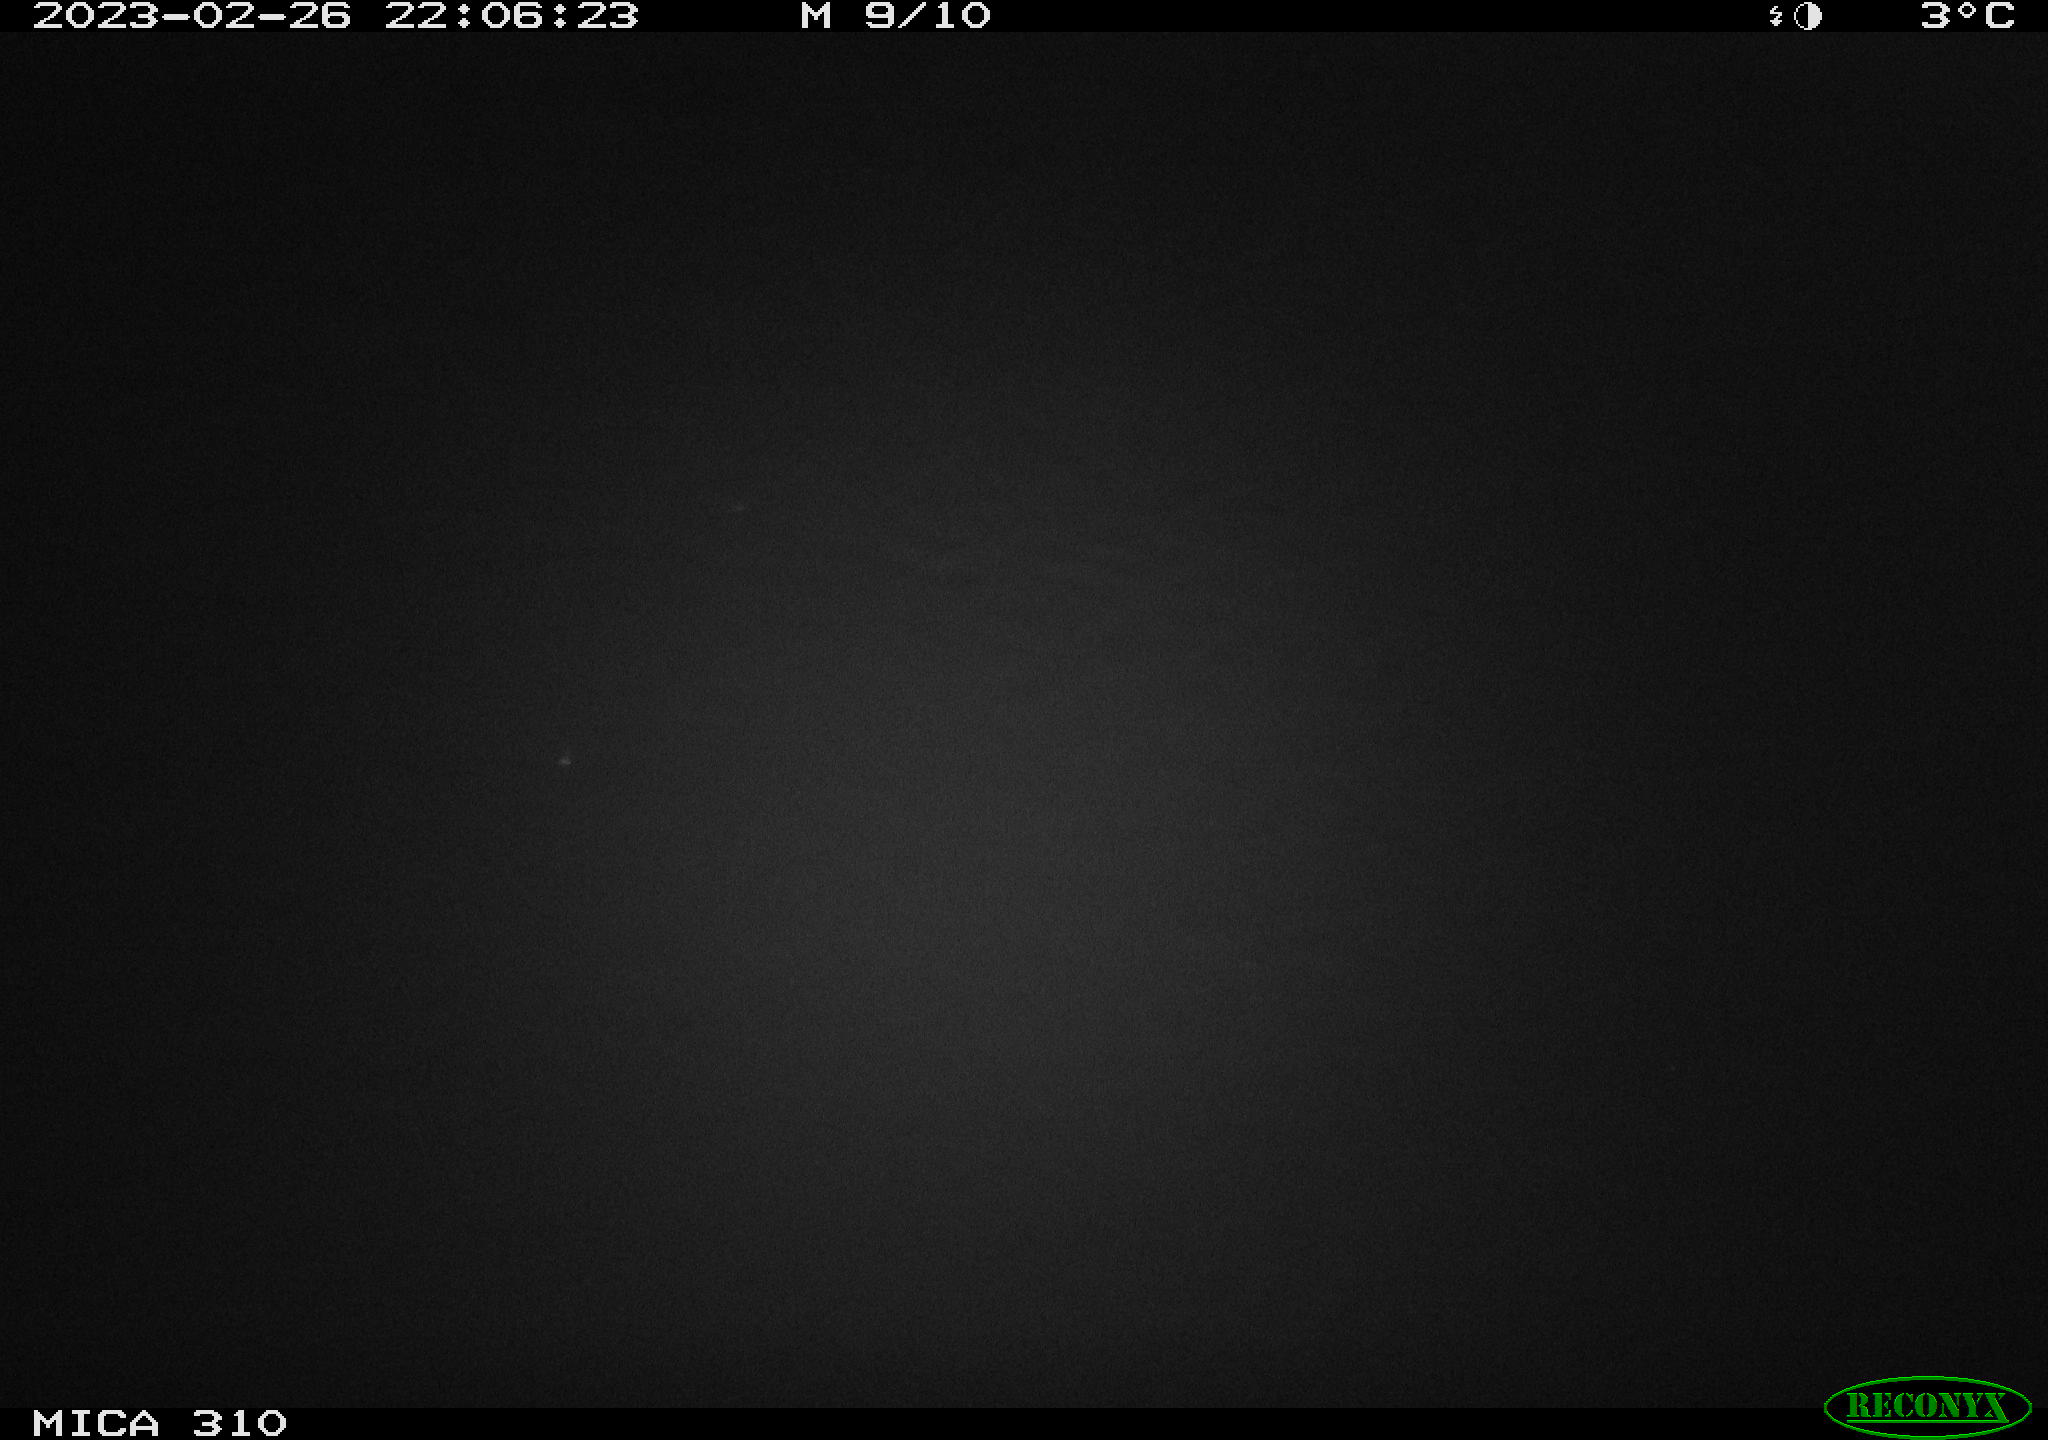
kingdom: Animalia
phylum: Chordata
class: Mammalia
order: Rodentia
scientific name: Rodentia
